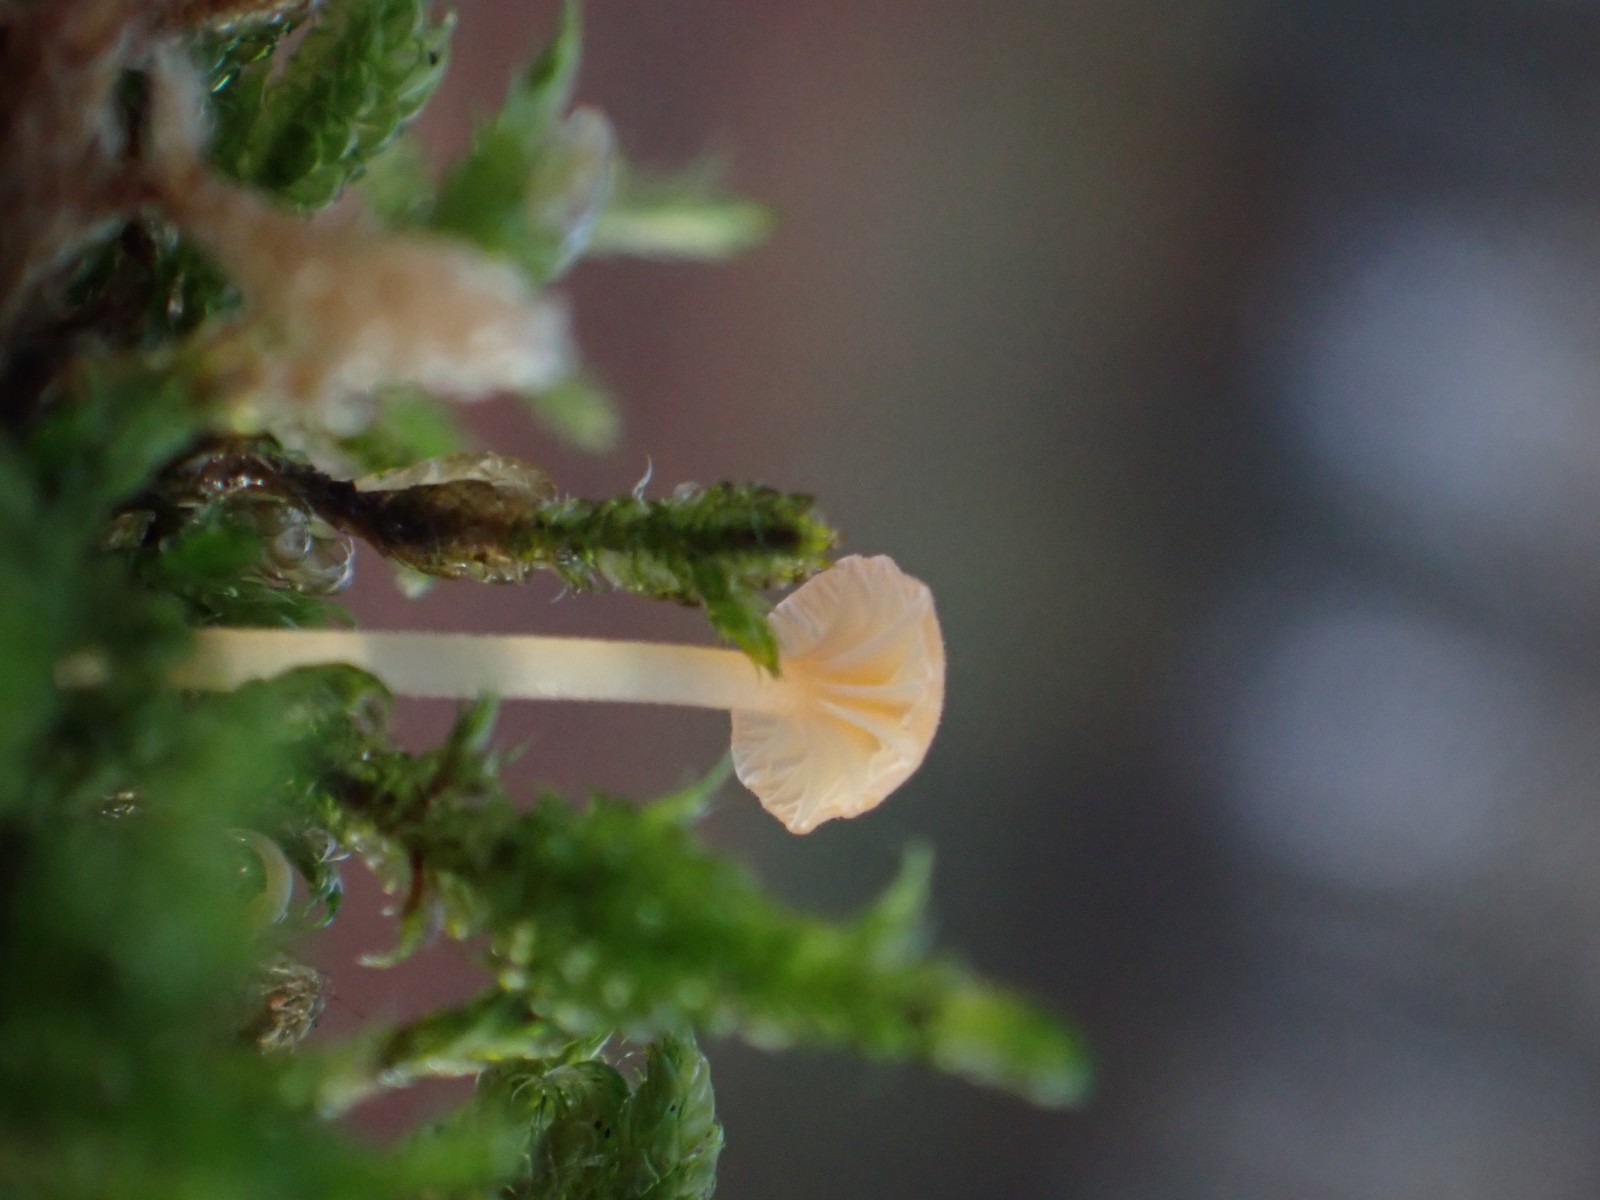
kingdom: Fungi
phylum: Basidiomycota
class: Agaricomycetes
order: Hymenochaetales
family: Rickenellaceae
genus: Rickenella
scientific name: Rickenella fibula
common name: orange mosnavlehat
